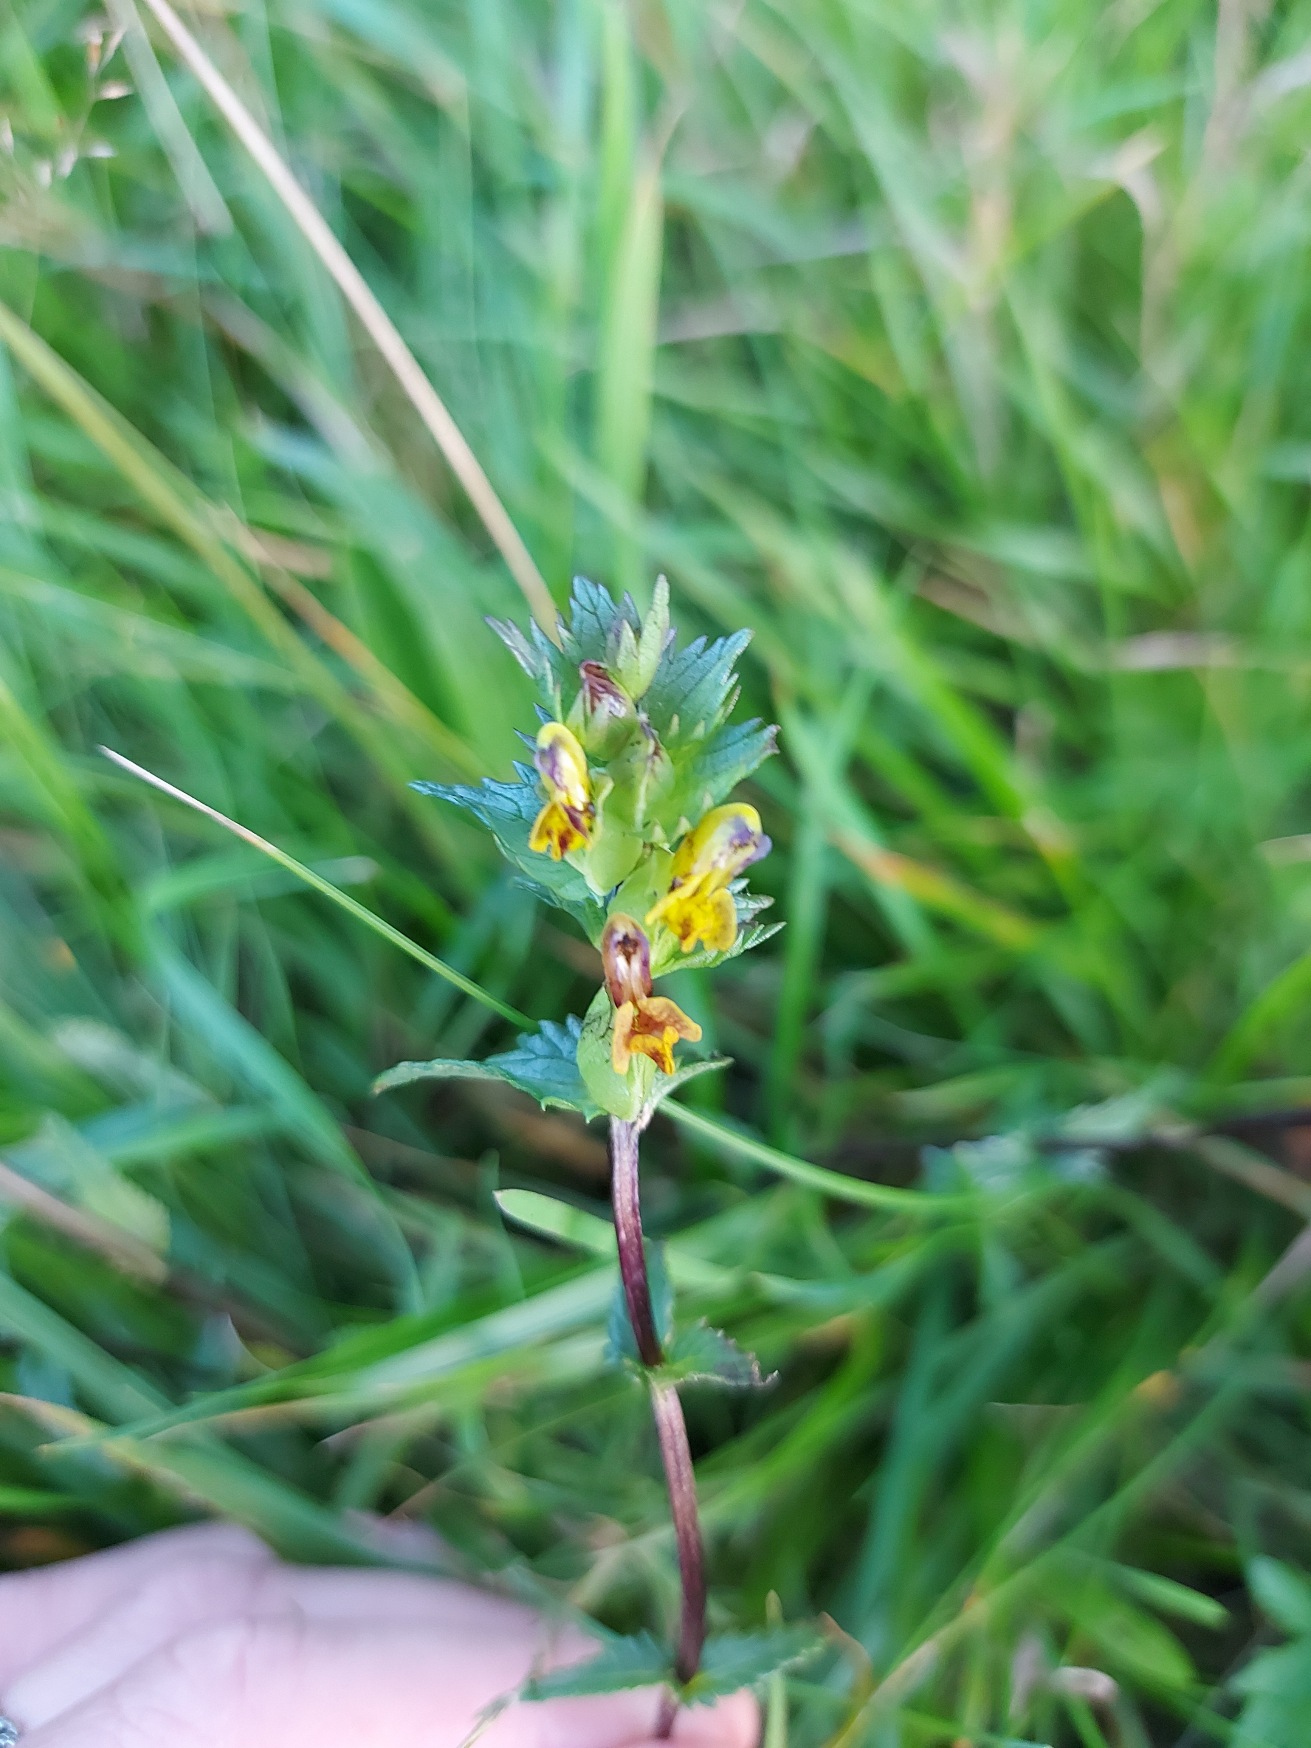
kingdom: Plantae
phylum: Tracheophyta
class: Magnoliopsida
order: Lamiales
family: Orobanchaceae
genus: Rhinanthus
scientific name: Rhinanthus minor
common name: Liden skjaller
